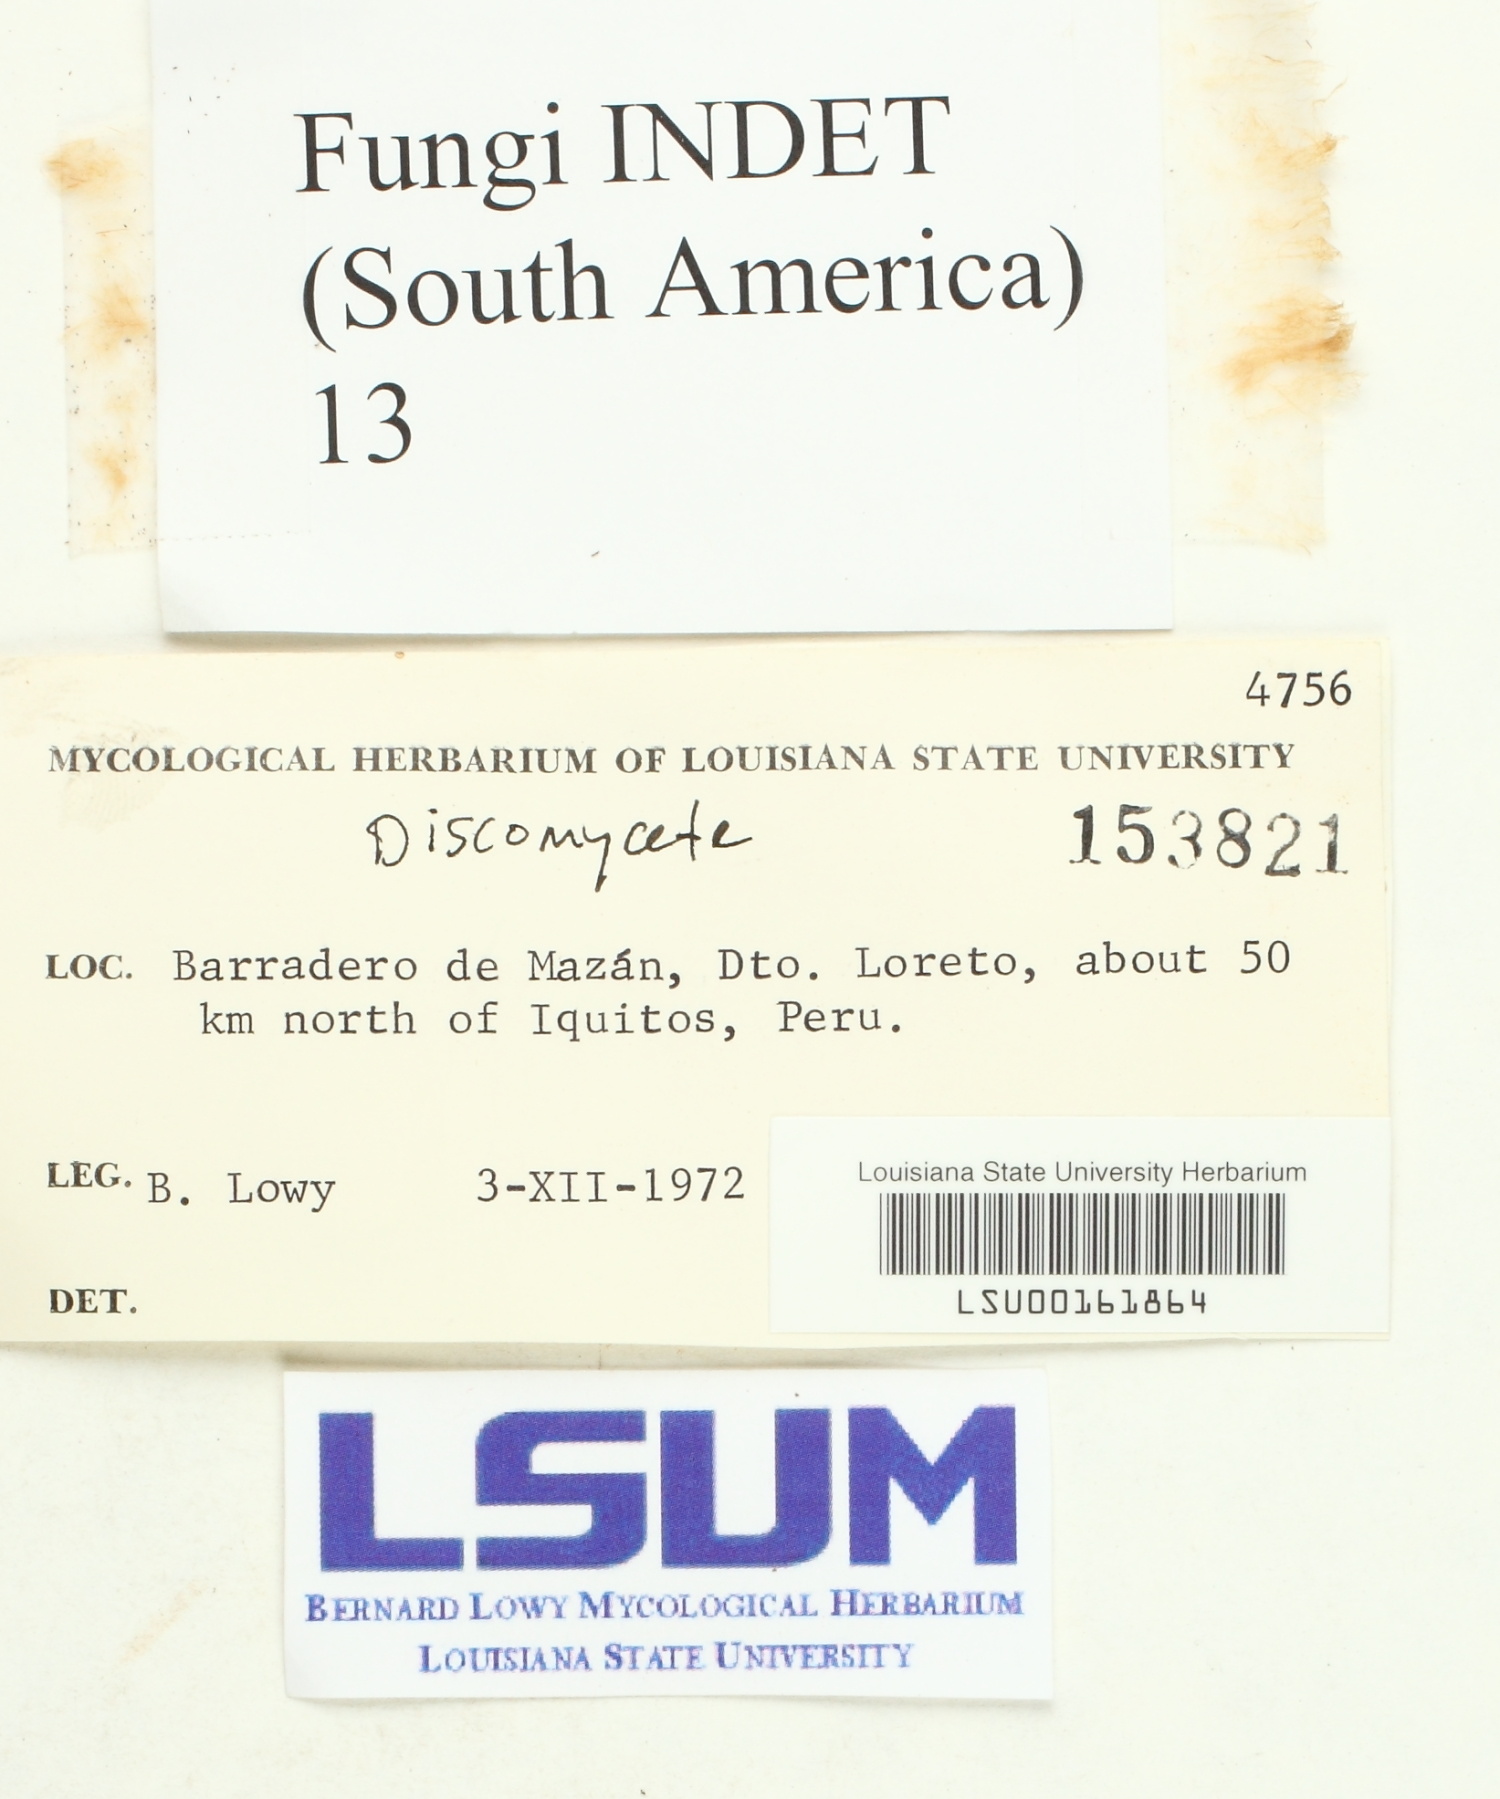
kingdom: Fungi
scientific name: Fungi
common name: Fungi
